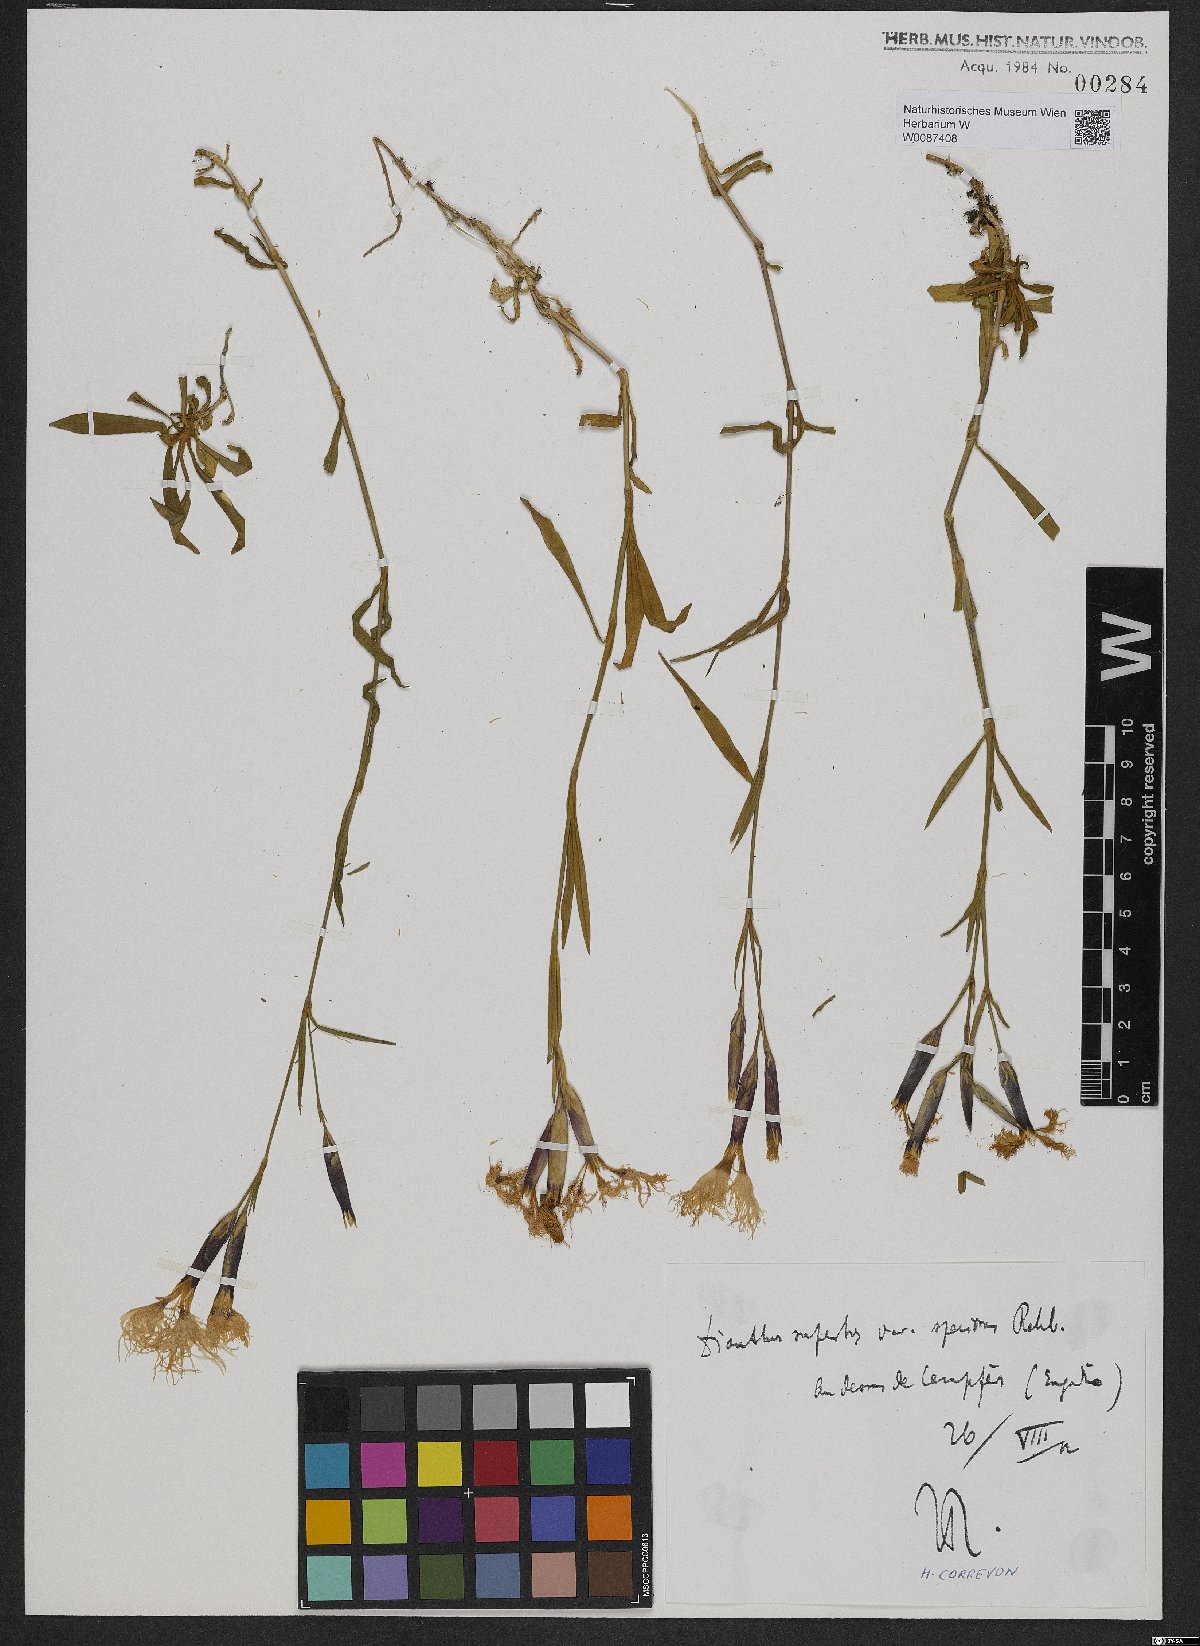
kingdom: Plantae
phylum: Tracheophyta
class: Magnoliopsida
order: Caryophyllales
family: Caryophyllaceae
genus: Dianthus
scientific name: Dianthus superbus
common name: Fringed pink
